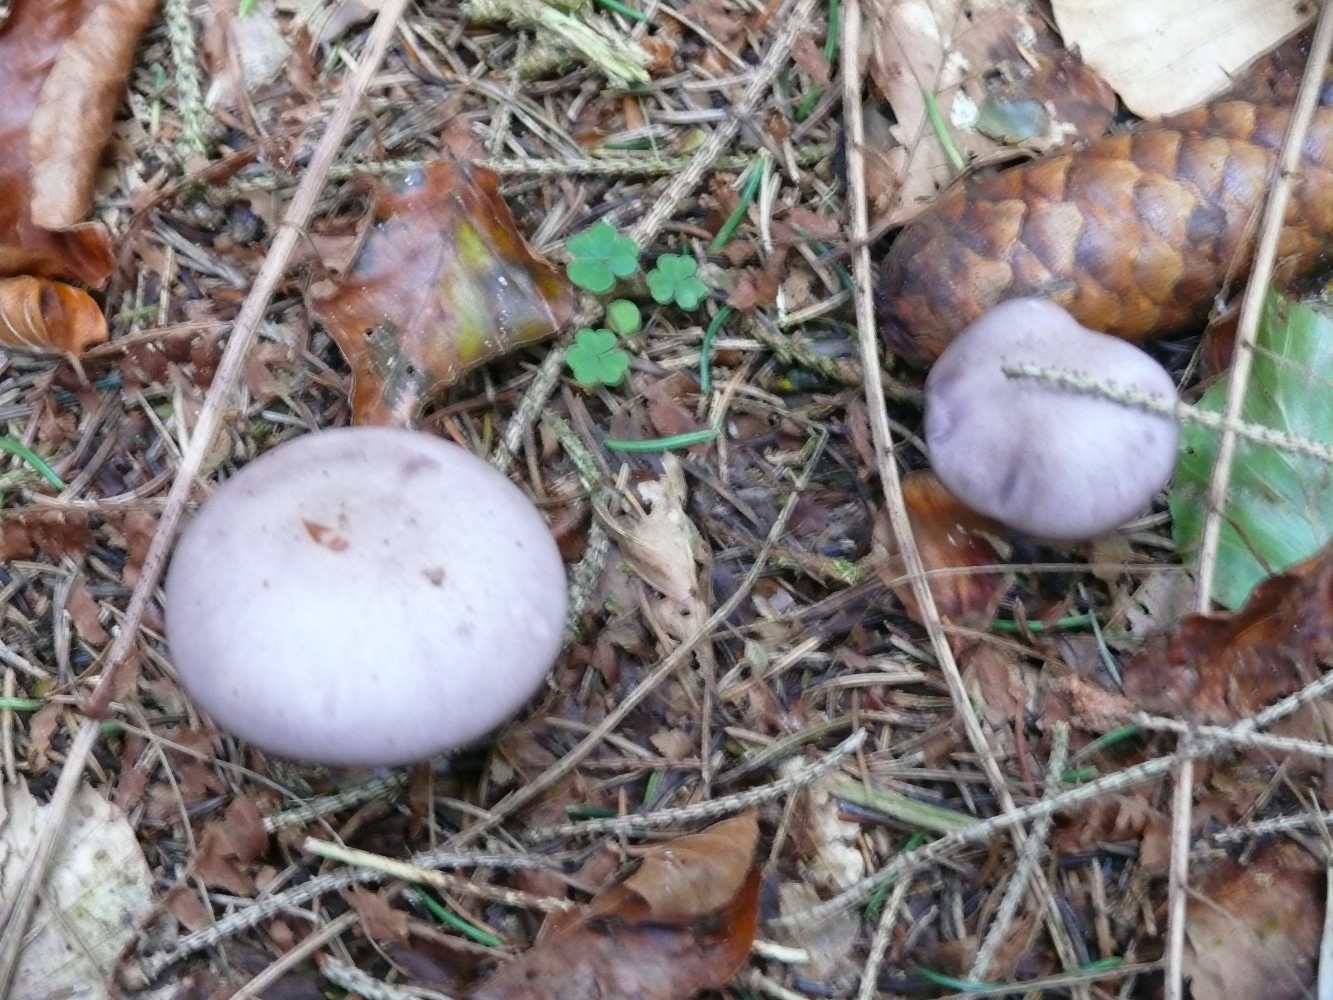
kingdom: Fungi
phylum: Basidiomycota
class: Agaricomycetes
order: Agaricales
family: Tricholomataceae
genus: Lepista
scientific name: Lepista nuda
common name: violet hekseringshat
